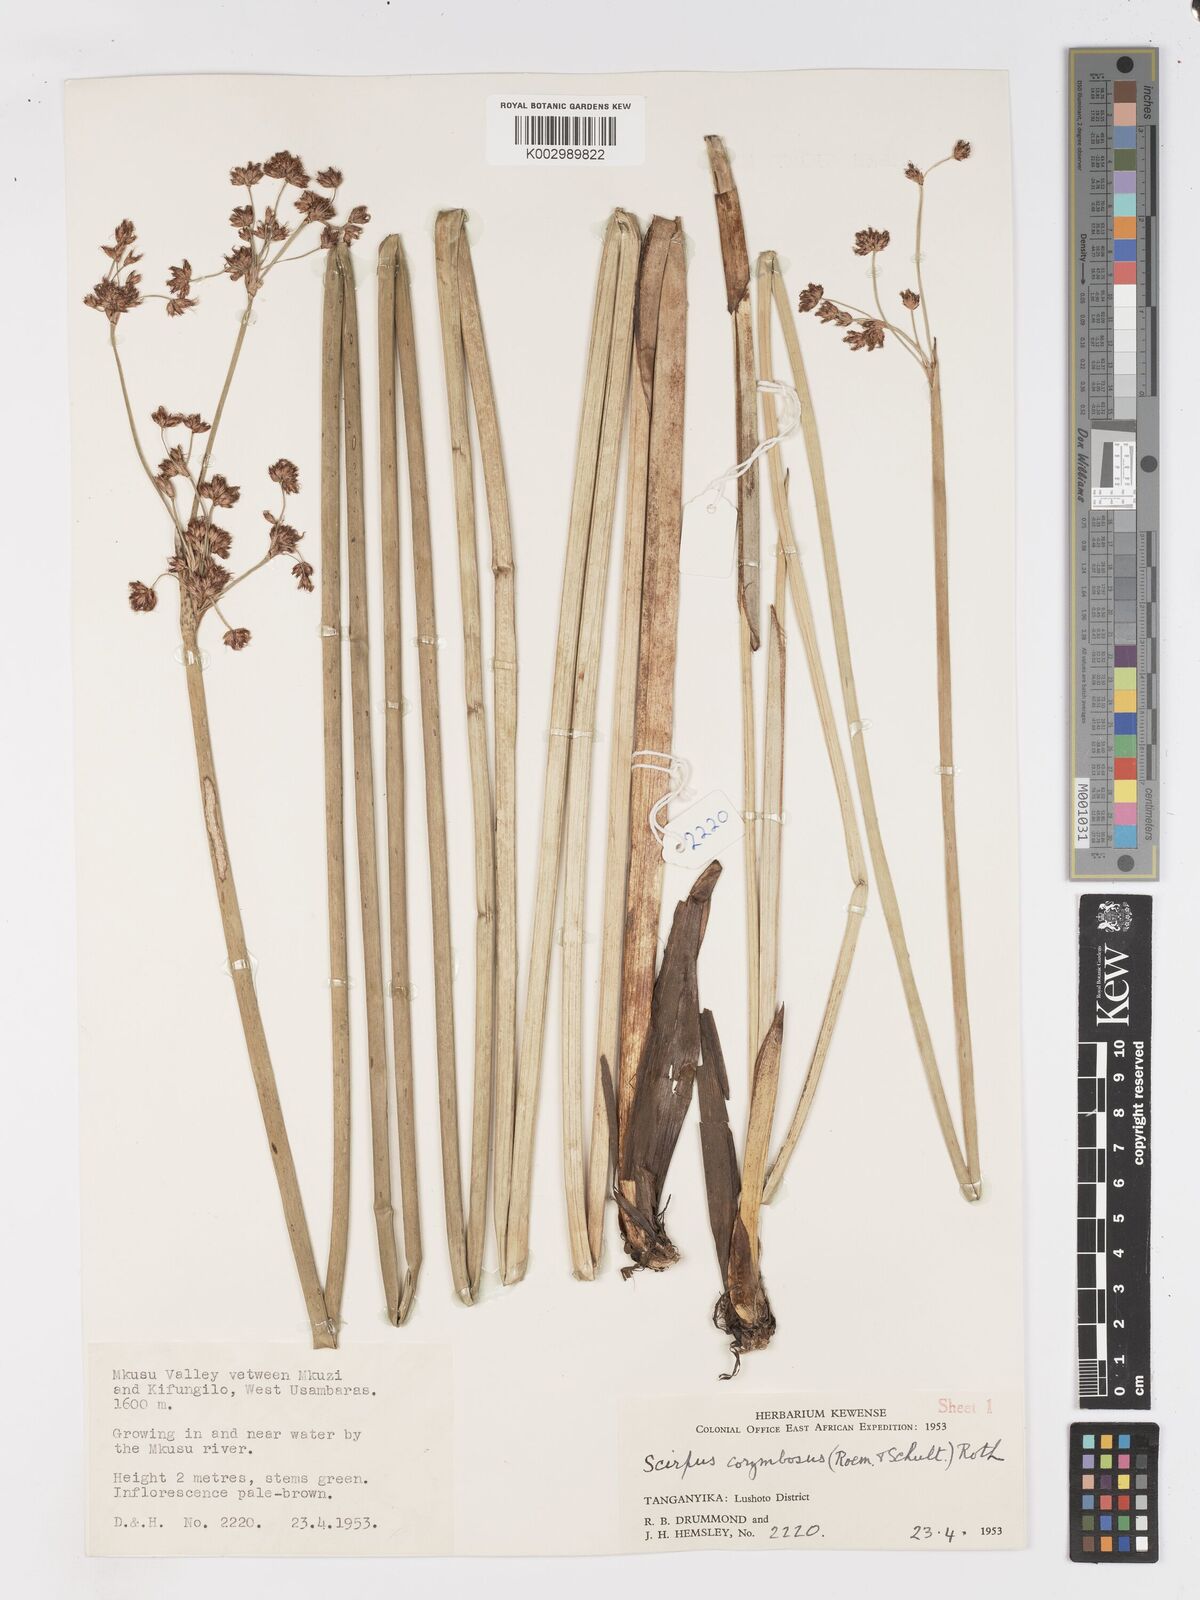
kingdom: Plantae
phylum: Tracheophyta
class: Liliopsida
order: Poales
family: Cyperaceae
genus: Schoenoplectiella
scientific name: Schoenoplectiella brachyceras
